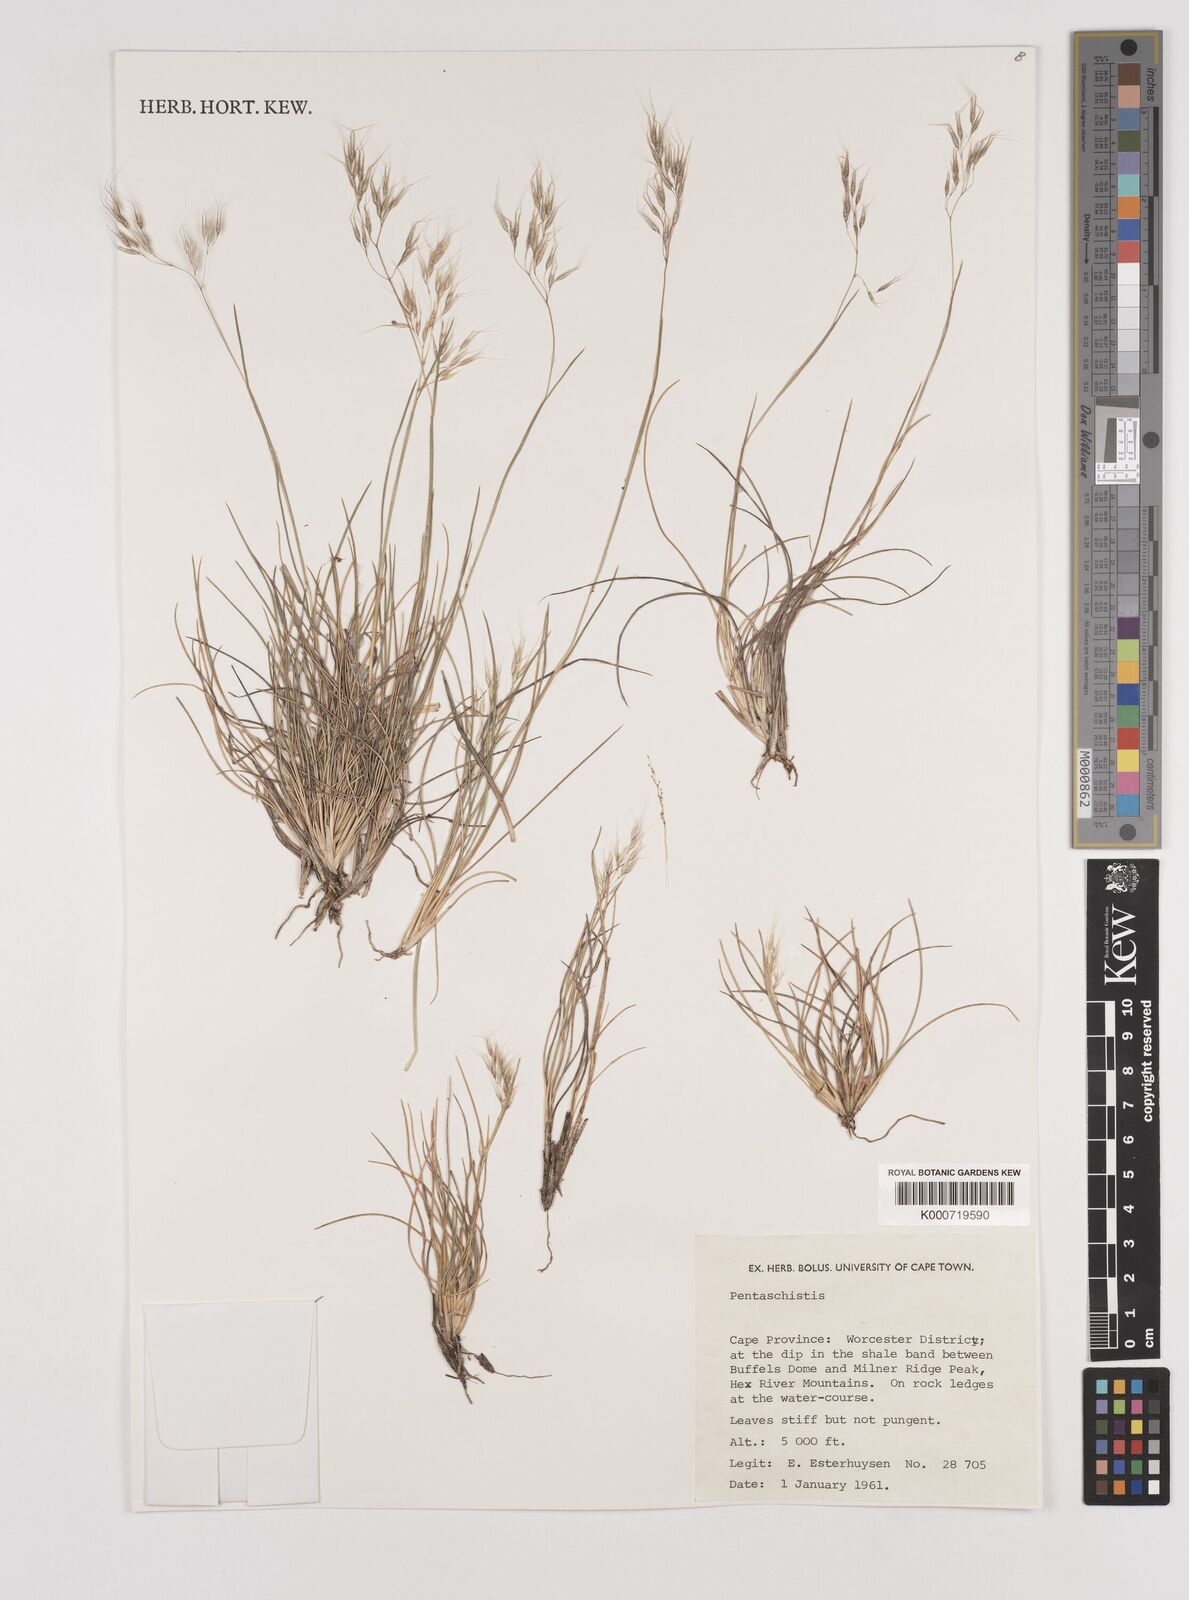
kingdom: Plantae
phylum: Tracheophyta
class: Liliopsida
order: Poales
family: Poaceae
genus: Pentameris
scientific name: Pentameris rigidissima
